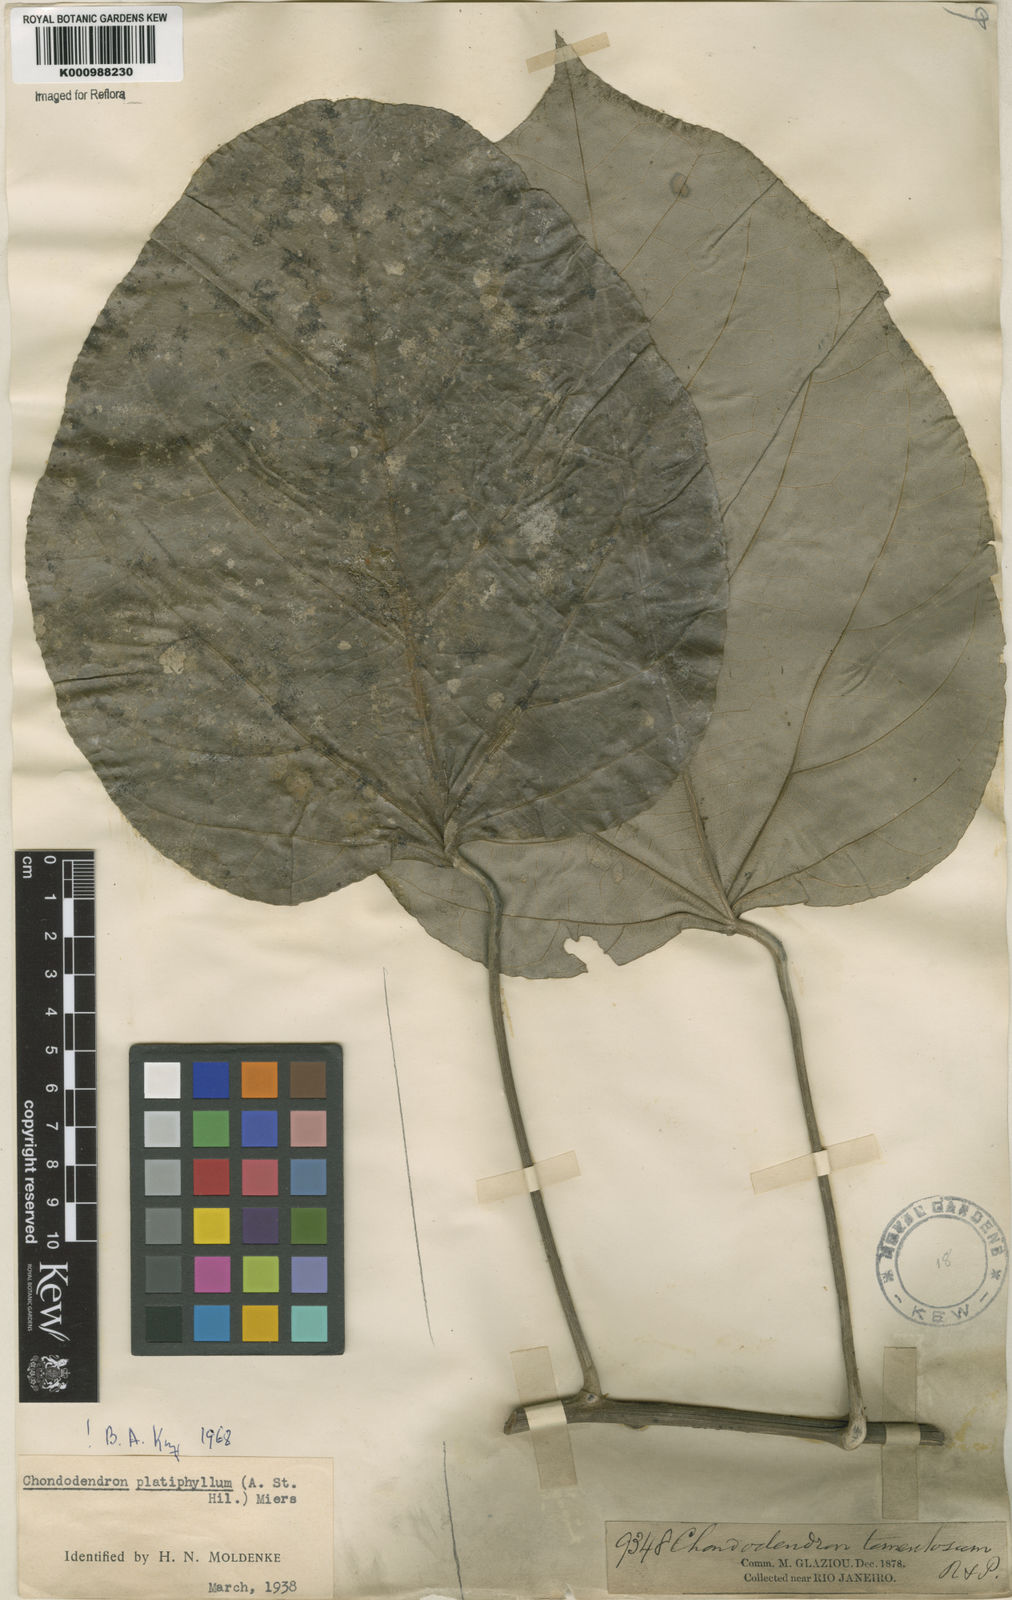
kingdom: Plantae
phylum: Tracheophyta
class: Magnoliopsida
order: Ranunculales
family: Menispermaceae
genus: Chondrodendron
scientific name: Chondrodendron platyphyllum
